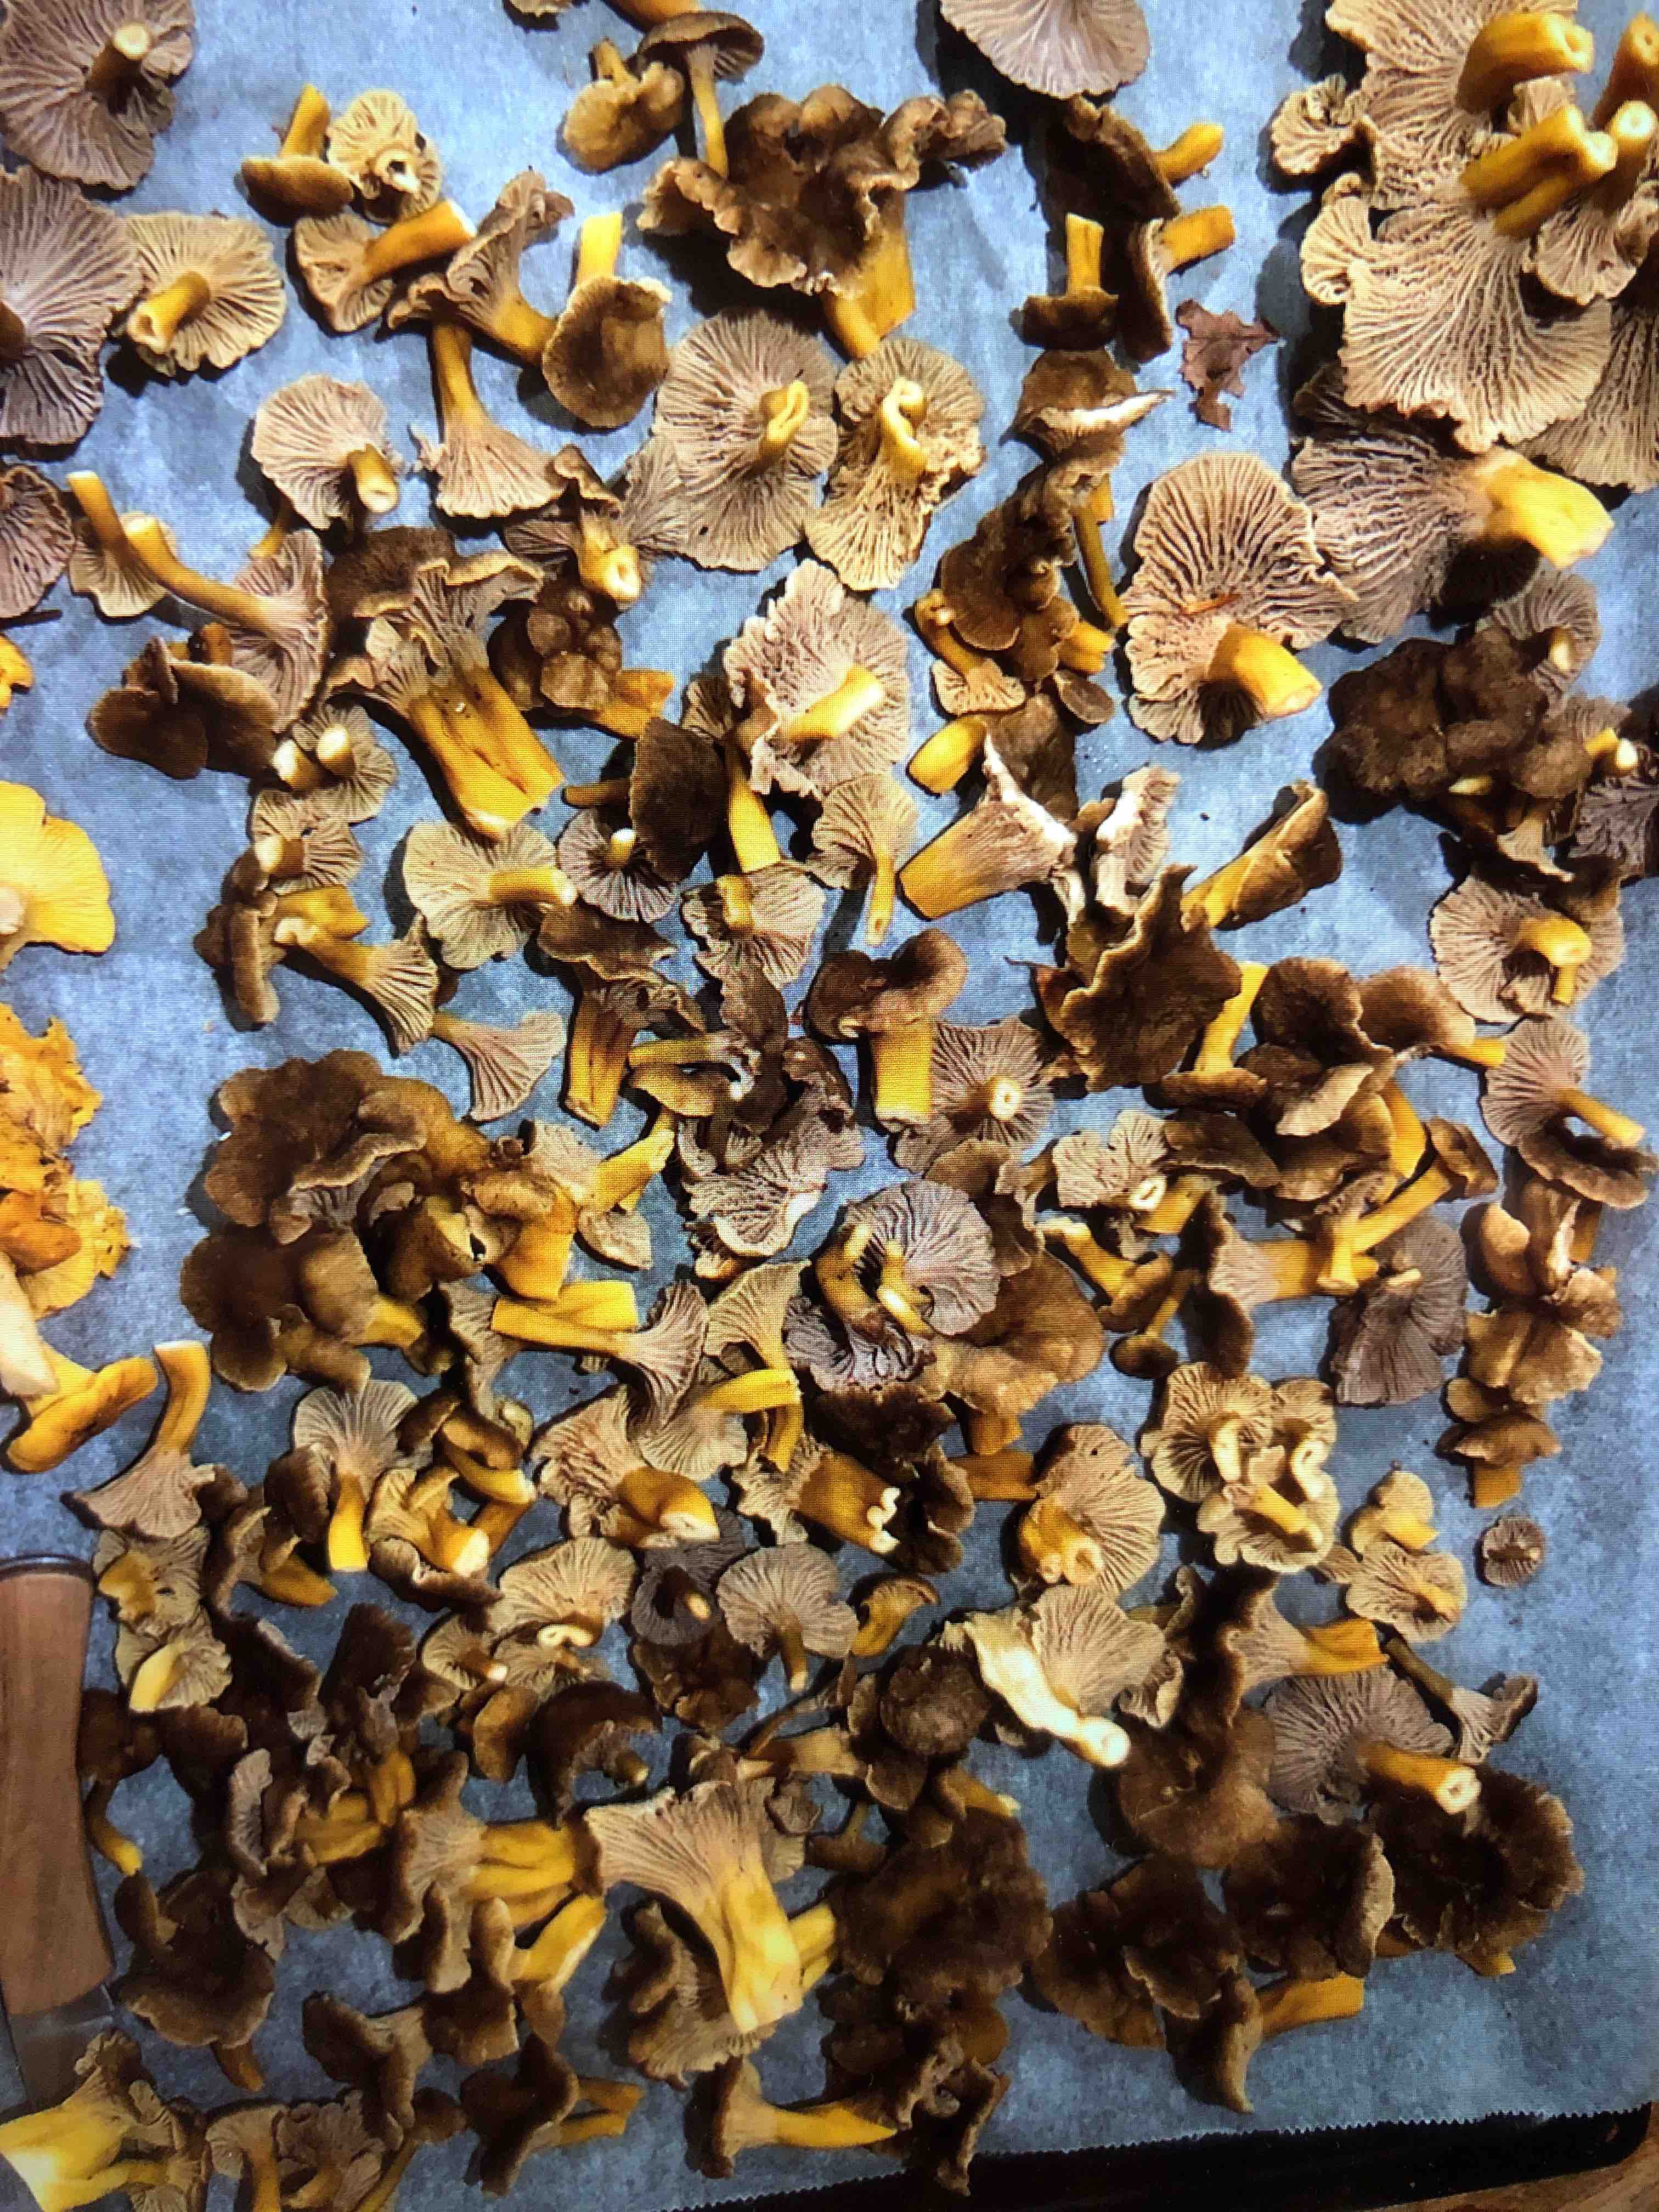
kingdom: Fungi
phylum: Basidiomycota
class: Agaricomycetes
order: Cantharellales
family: Hydnaceae
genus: Craterellus
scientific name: Craterellus tubaeformis
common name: tragt-kantarel
